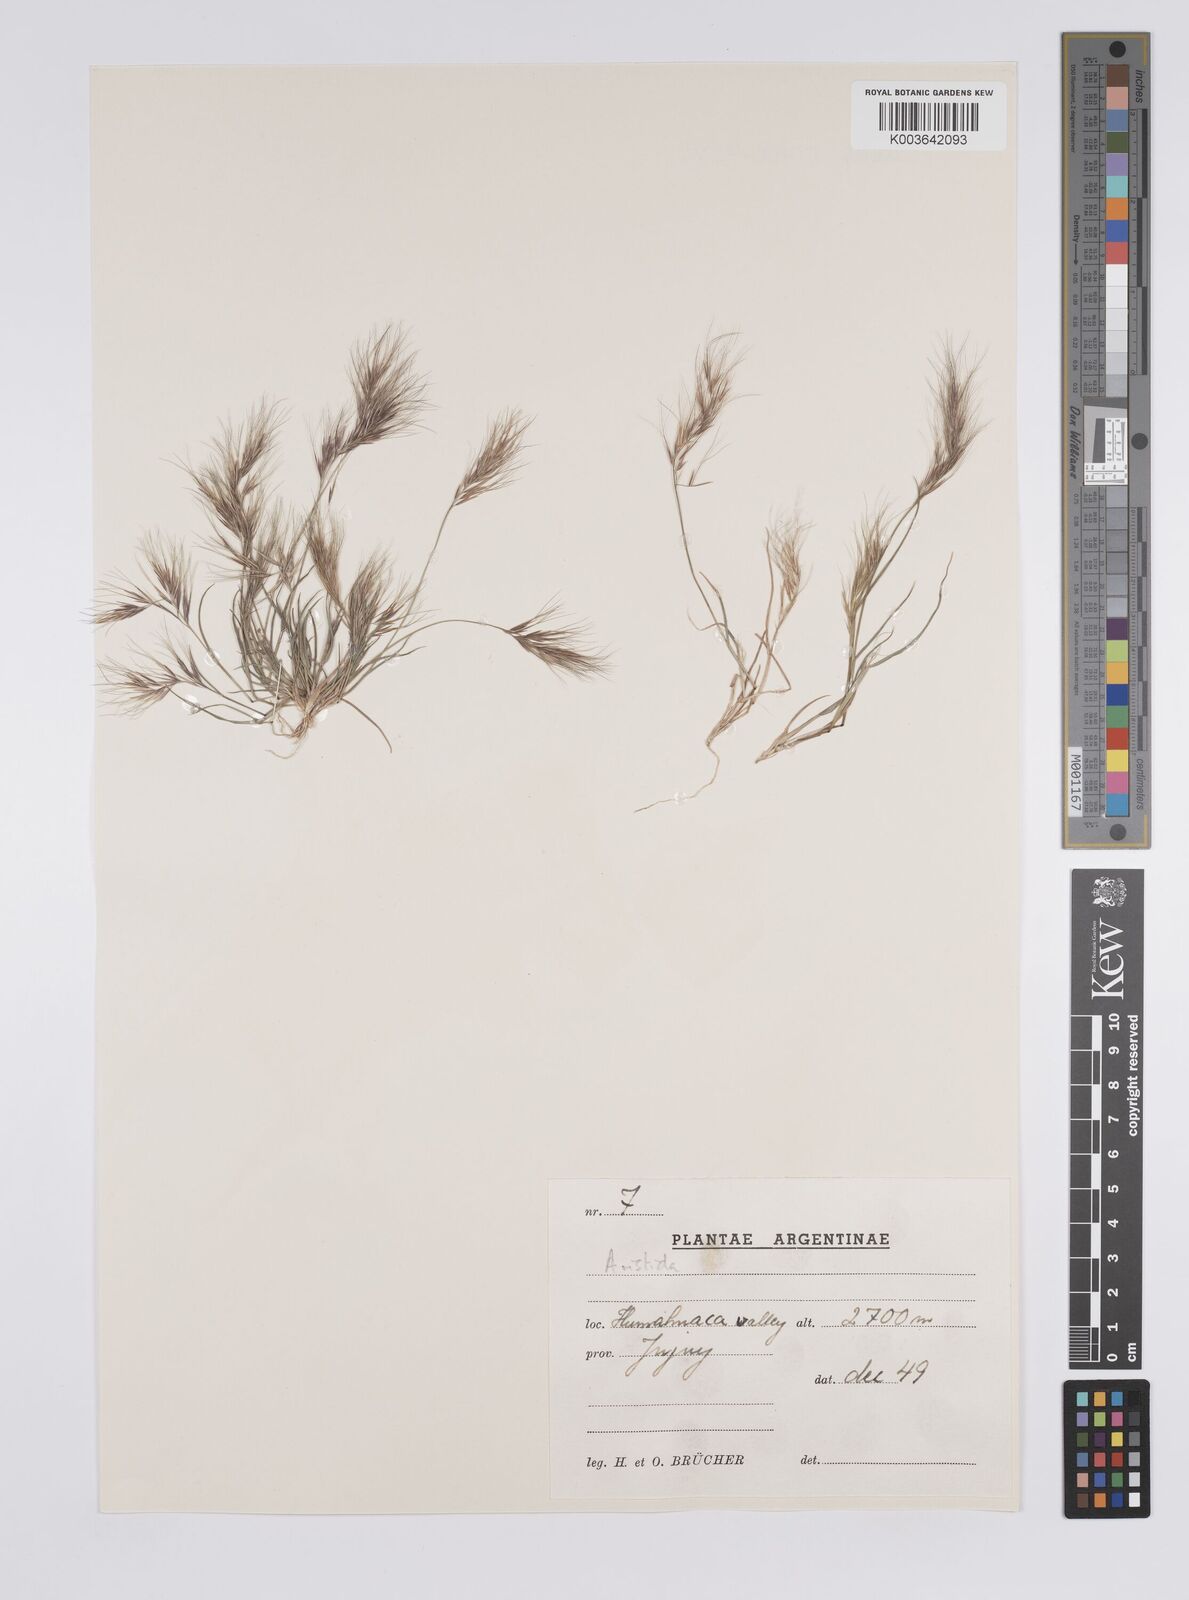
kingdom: Plantae
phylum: Tracheophyta
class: Liliopsida
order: Poales
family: Poaceae
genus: Aristida
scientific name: Aristida adscensionis
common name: Sixweeks threeawn
